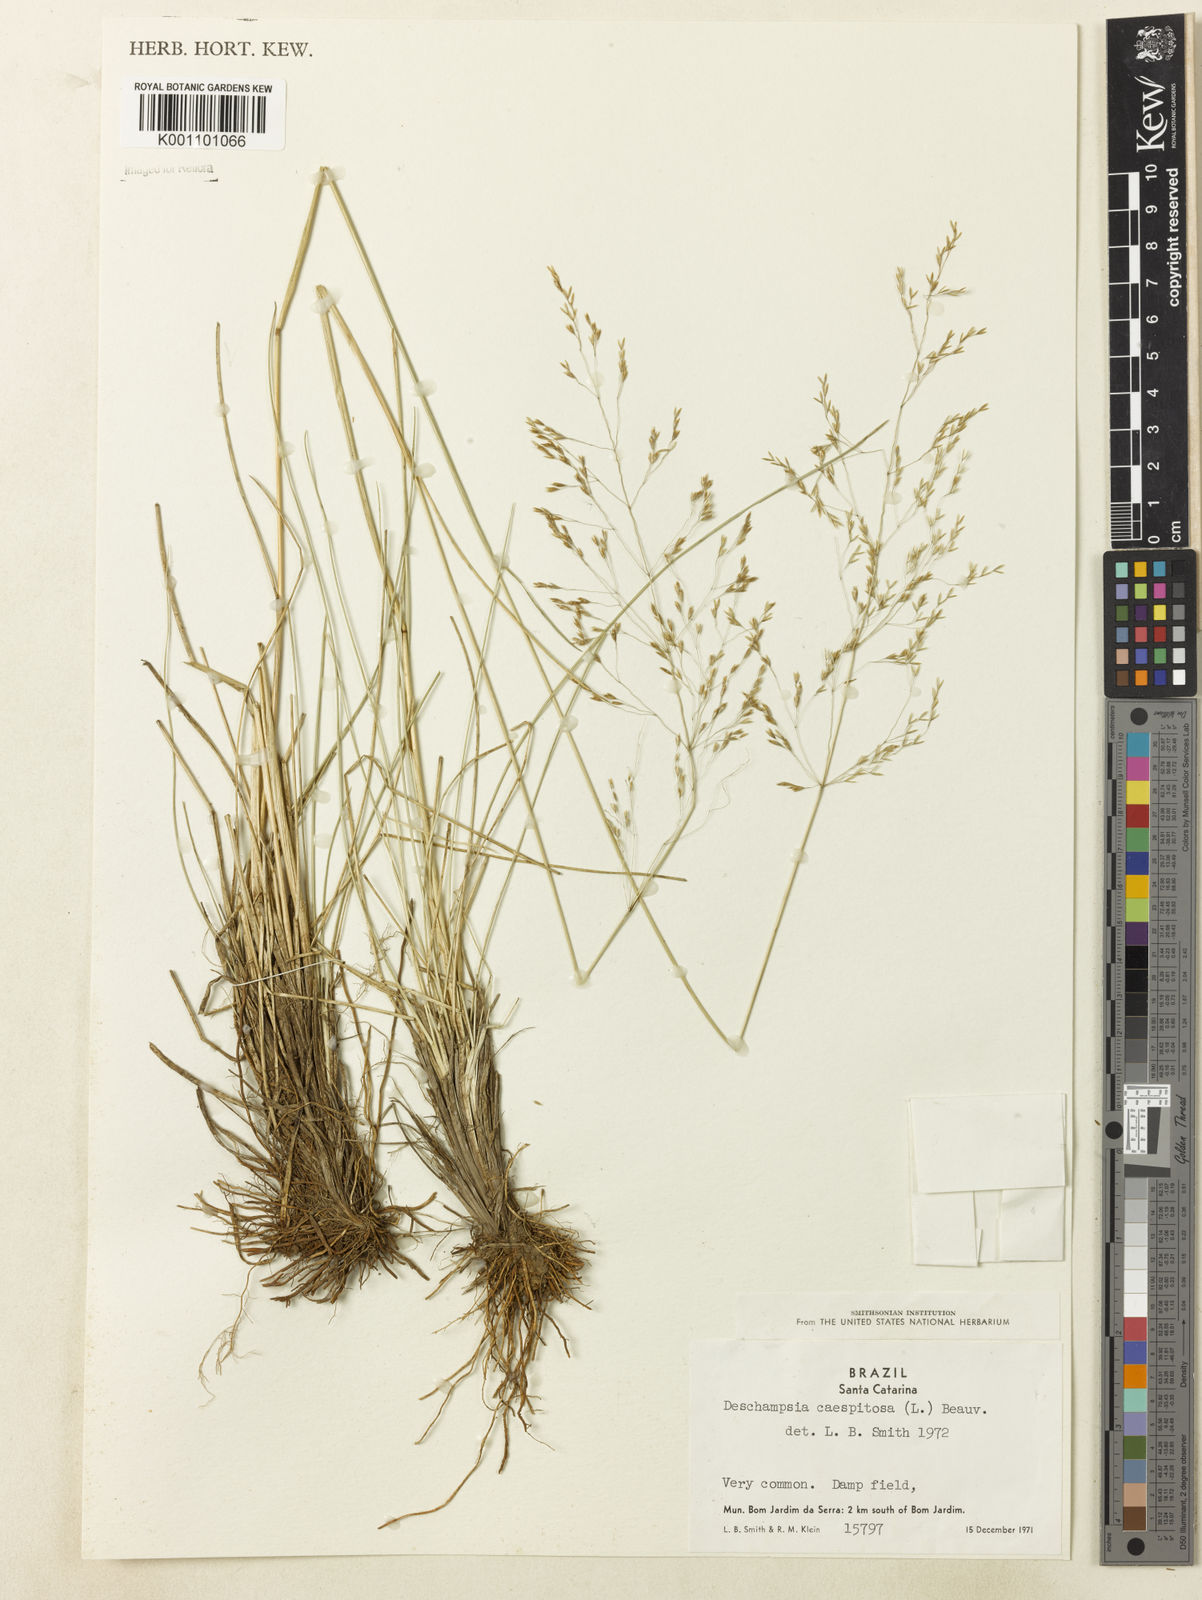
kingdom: Plantae
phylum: Tracheophyta
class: Liliopsida
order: Poales
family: Poaceae
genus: Deschampsia
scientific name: Deschampsia
